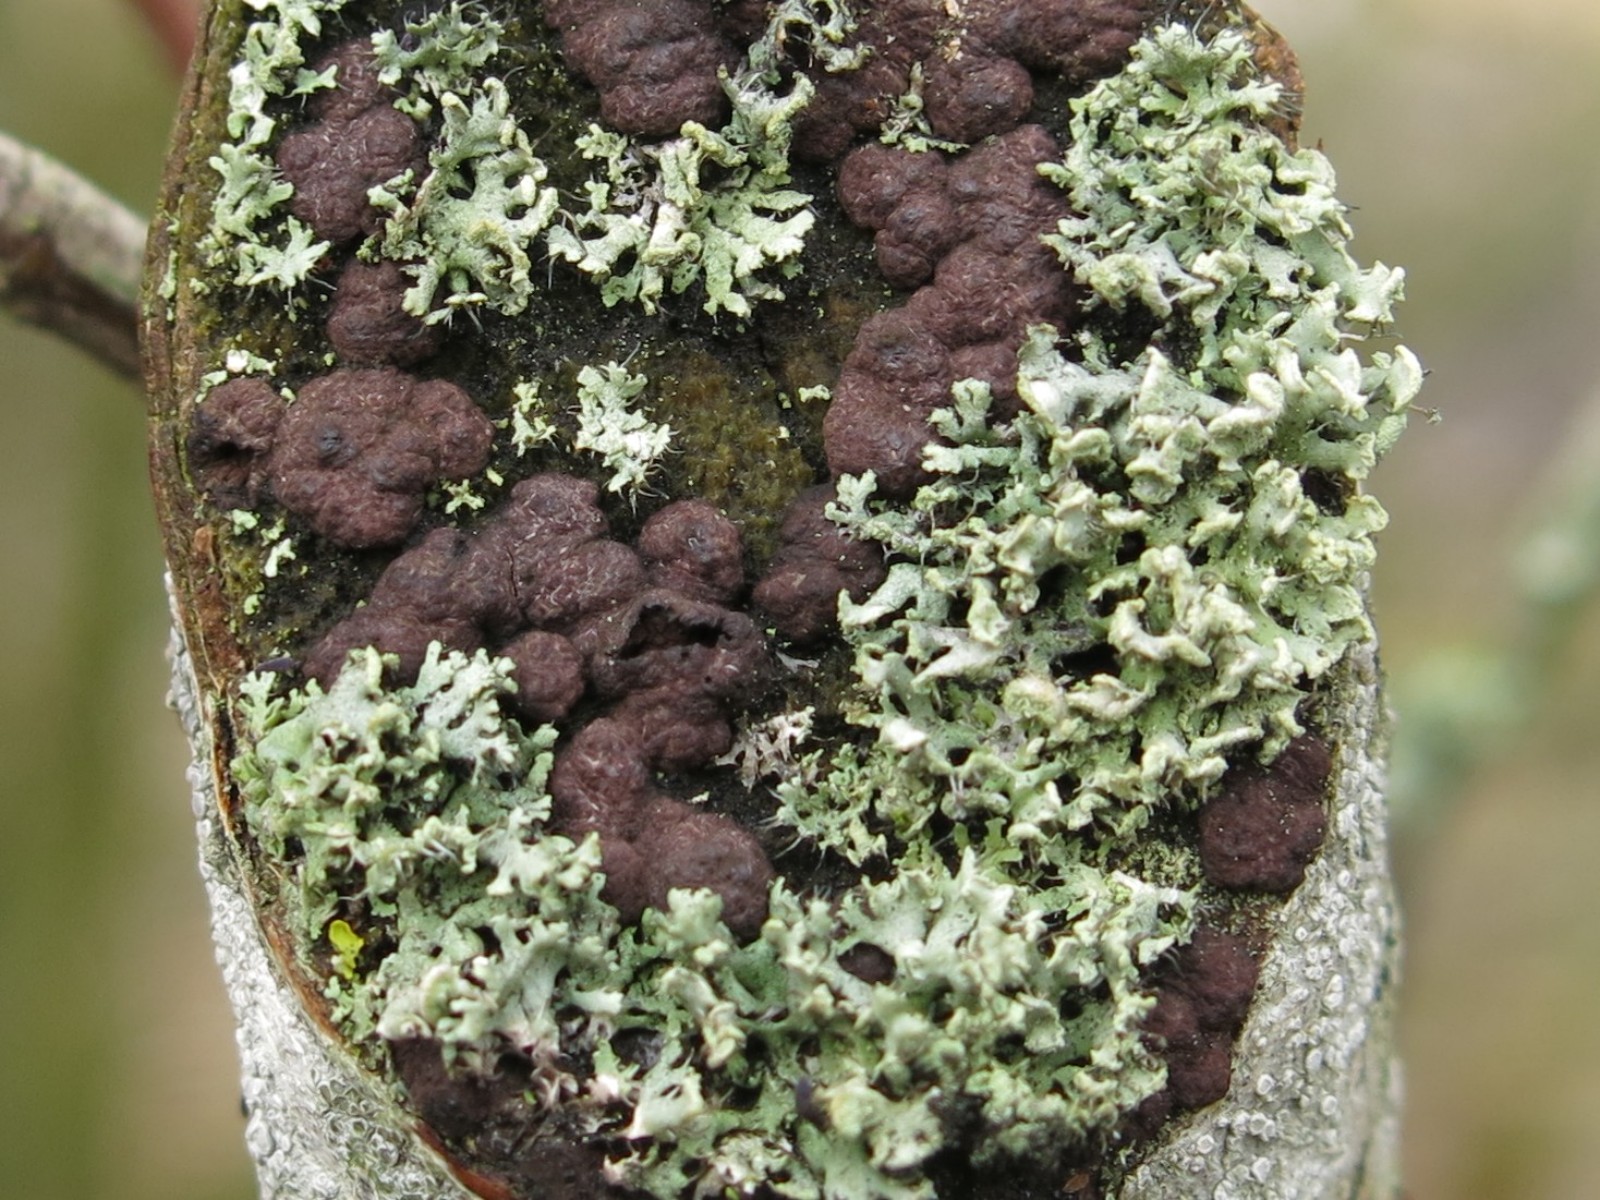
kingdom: Fungi
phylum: Ascomycota
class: Lecanoromycetes
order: Caliciales
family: Physciaceae
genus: Physcia
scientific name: Physcia tenella
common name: spæd rosetlav
